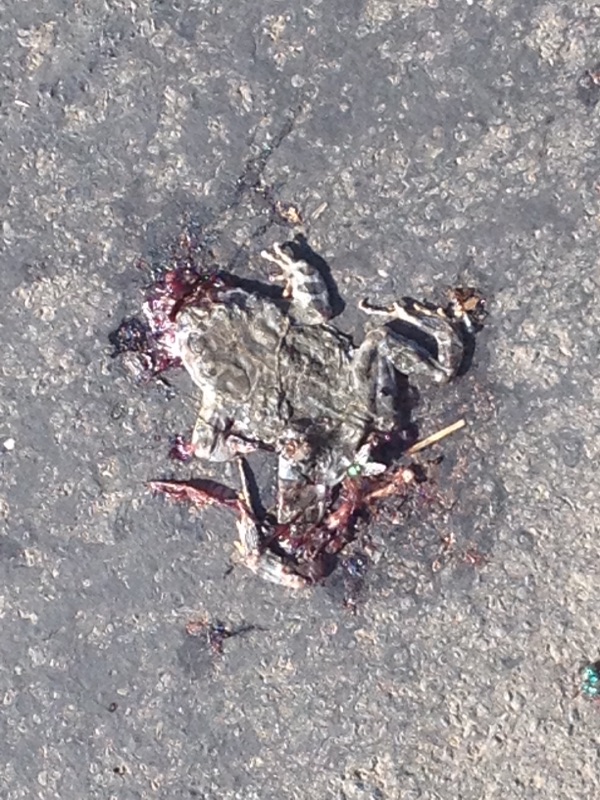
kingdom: Animalia
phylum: Chordata
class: Amphibia
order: Anura
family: Bufonidae
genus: Bufotes
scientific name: Bufotes viridis
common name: European green toad
